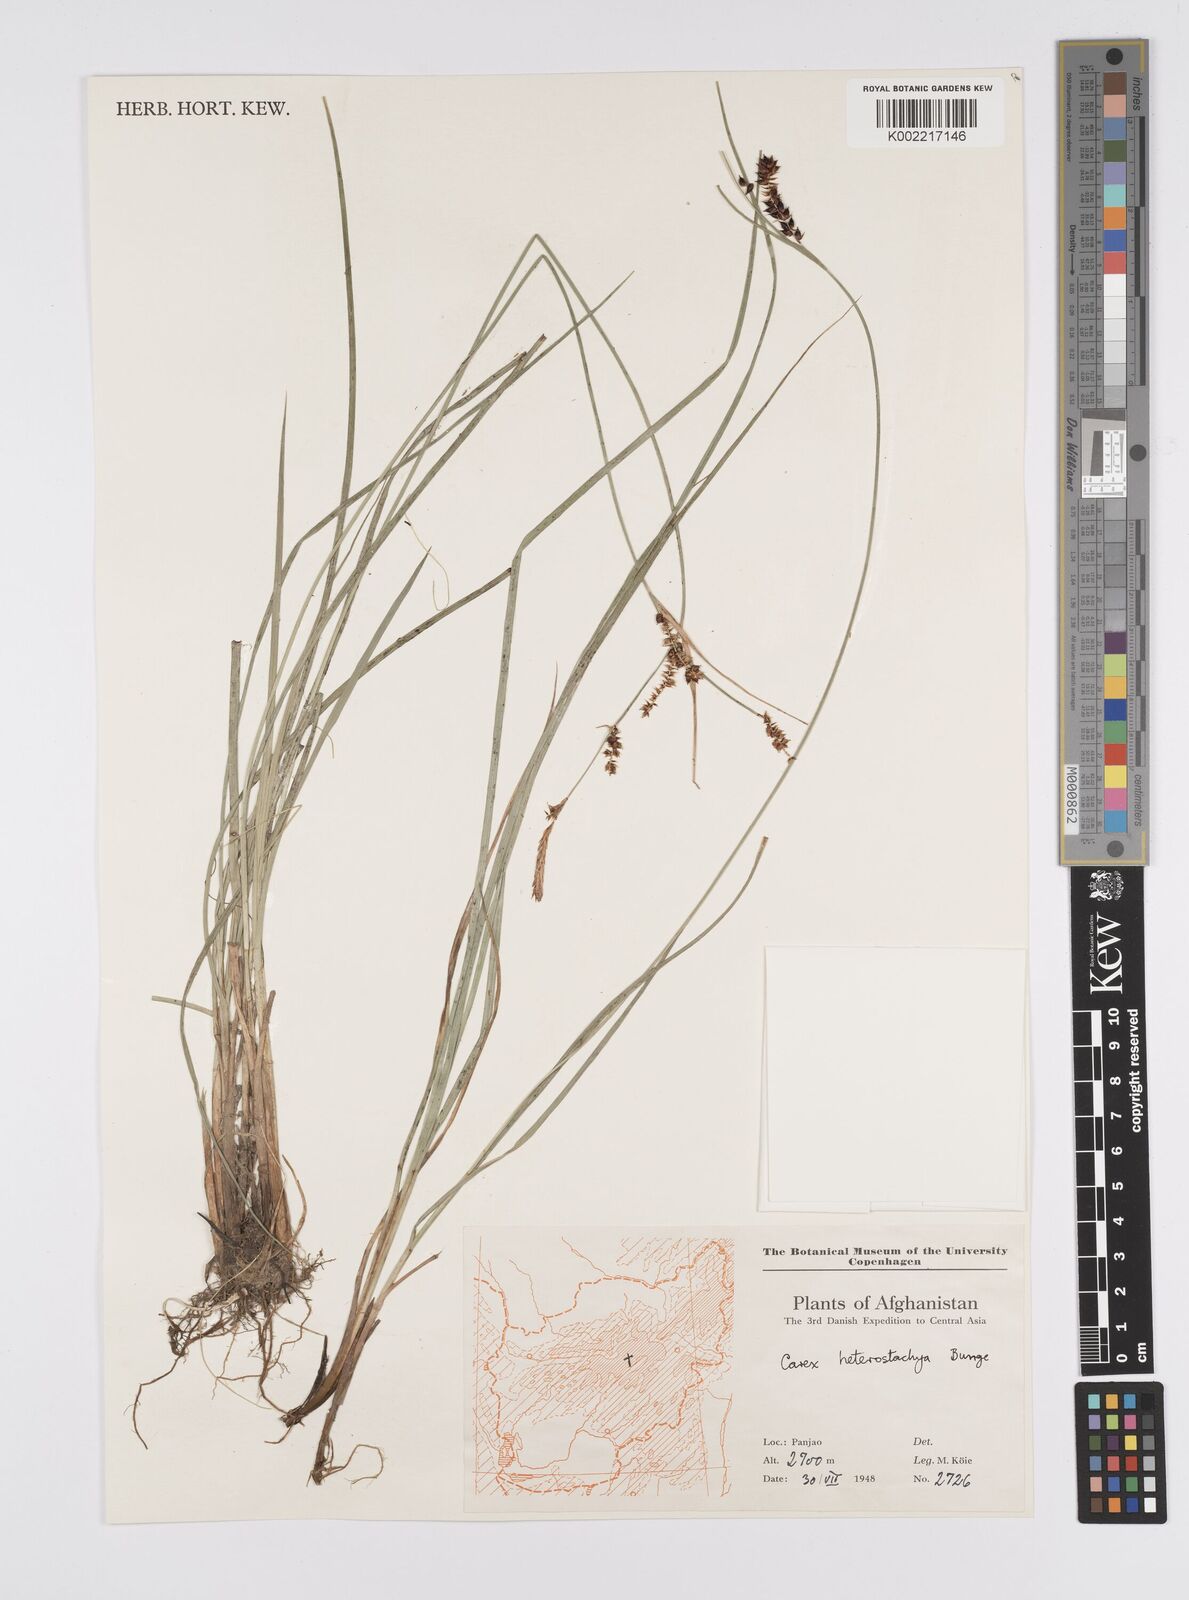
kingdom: Plantae
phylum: Tracheophyta
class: Liliopsida
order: Poales
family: Cyperaceae
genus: Carex
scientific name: Carex heterostachya
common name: Different-spike sedge
